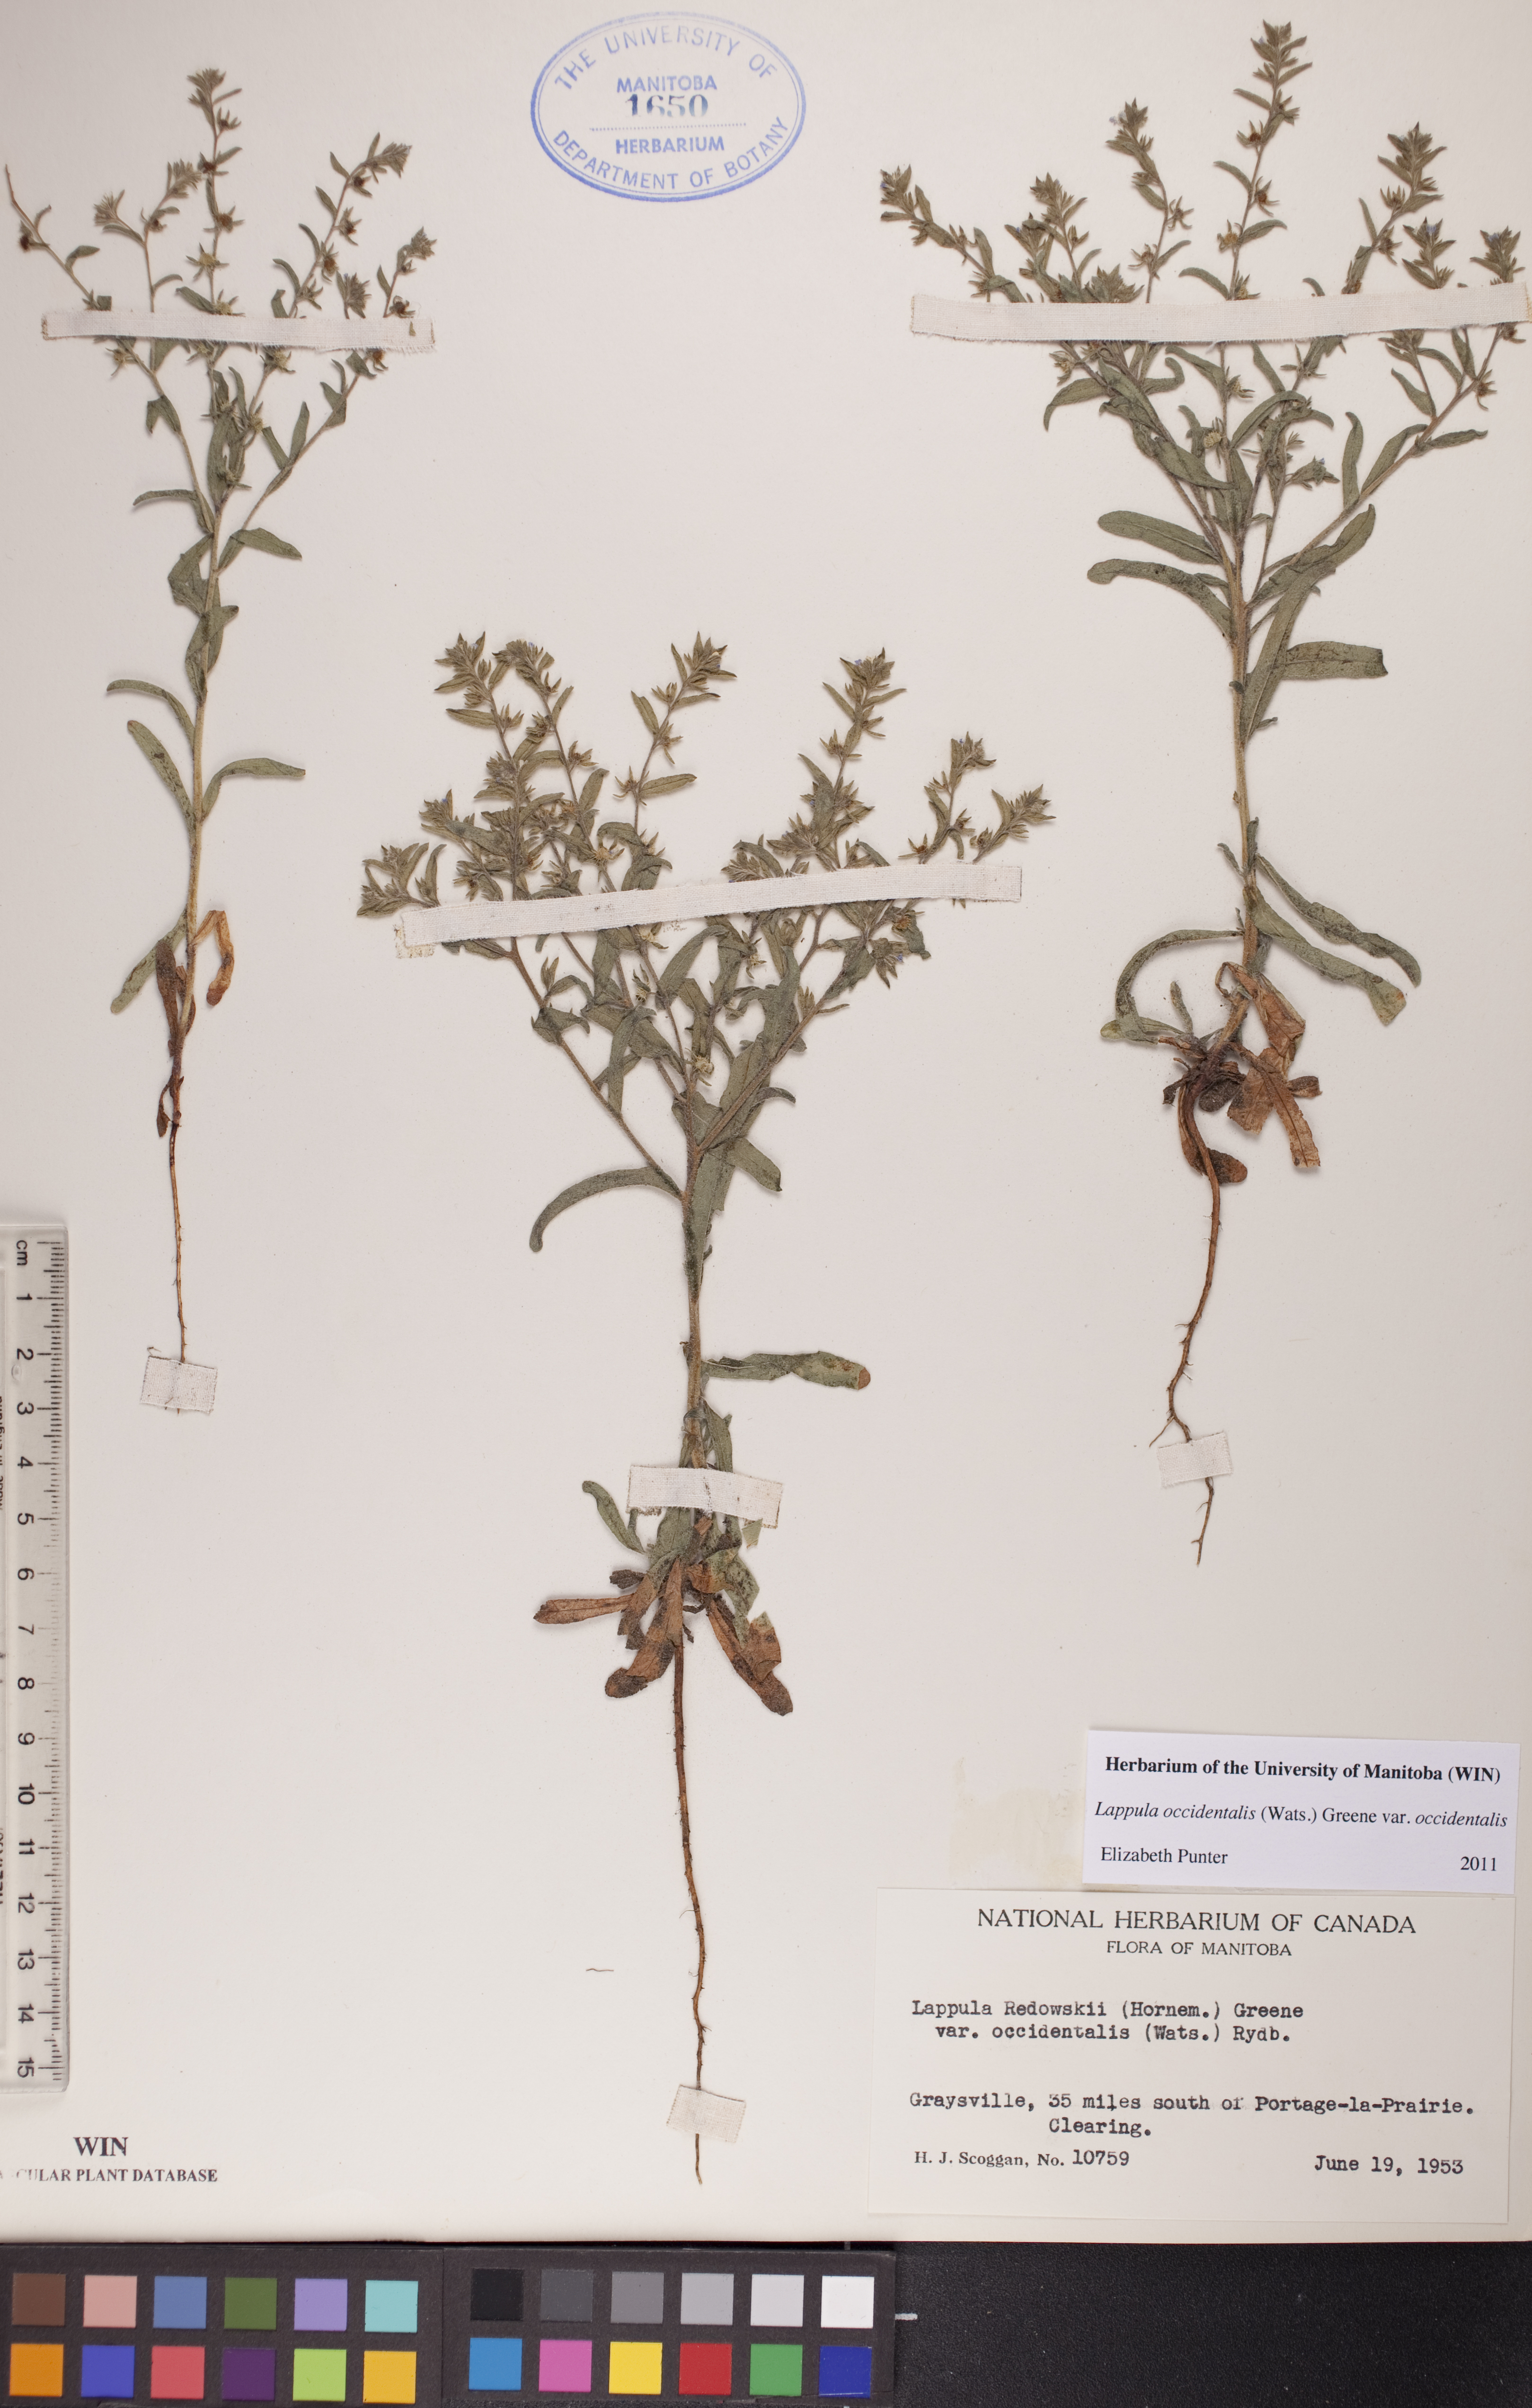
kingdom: Plantae
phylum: Tracheophyta
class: Magnoliopsida
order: Boraginales
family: Boraginaceae
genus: Lappula
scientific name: Lappula occidentalis
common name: Western stickseed
